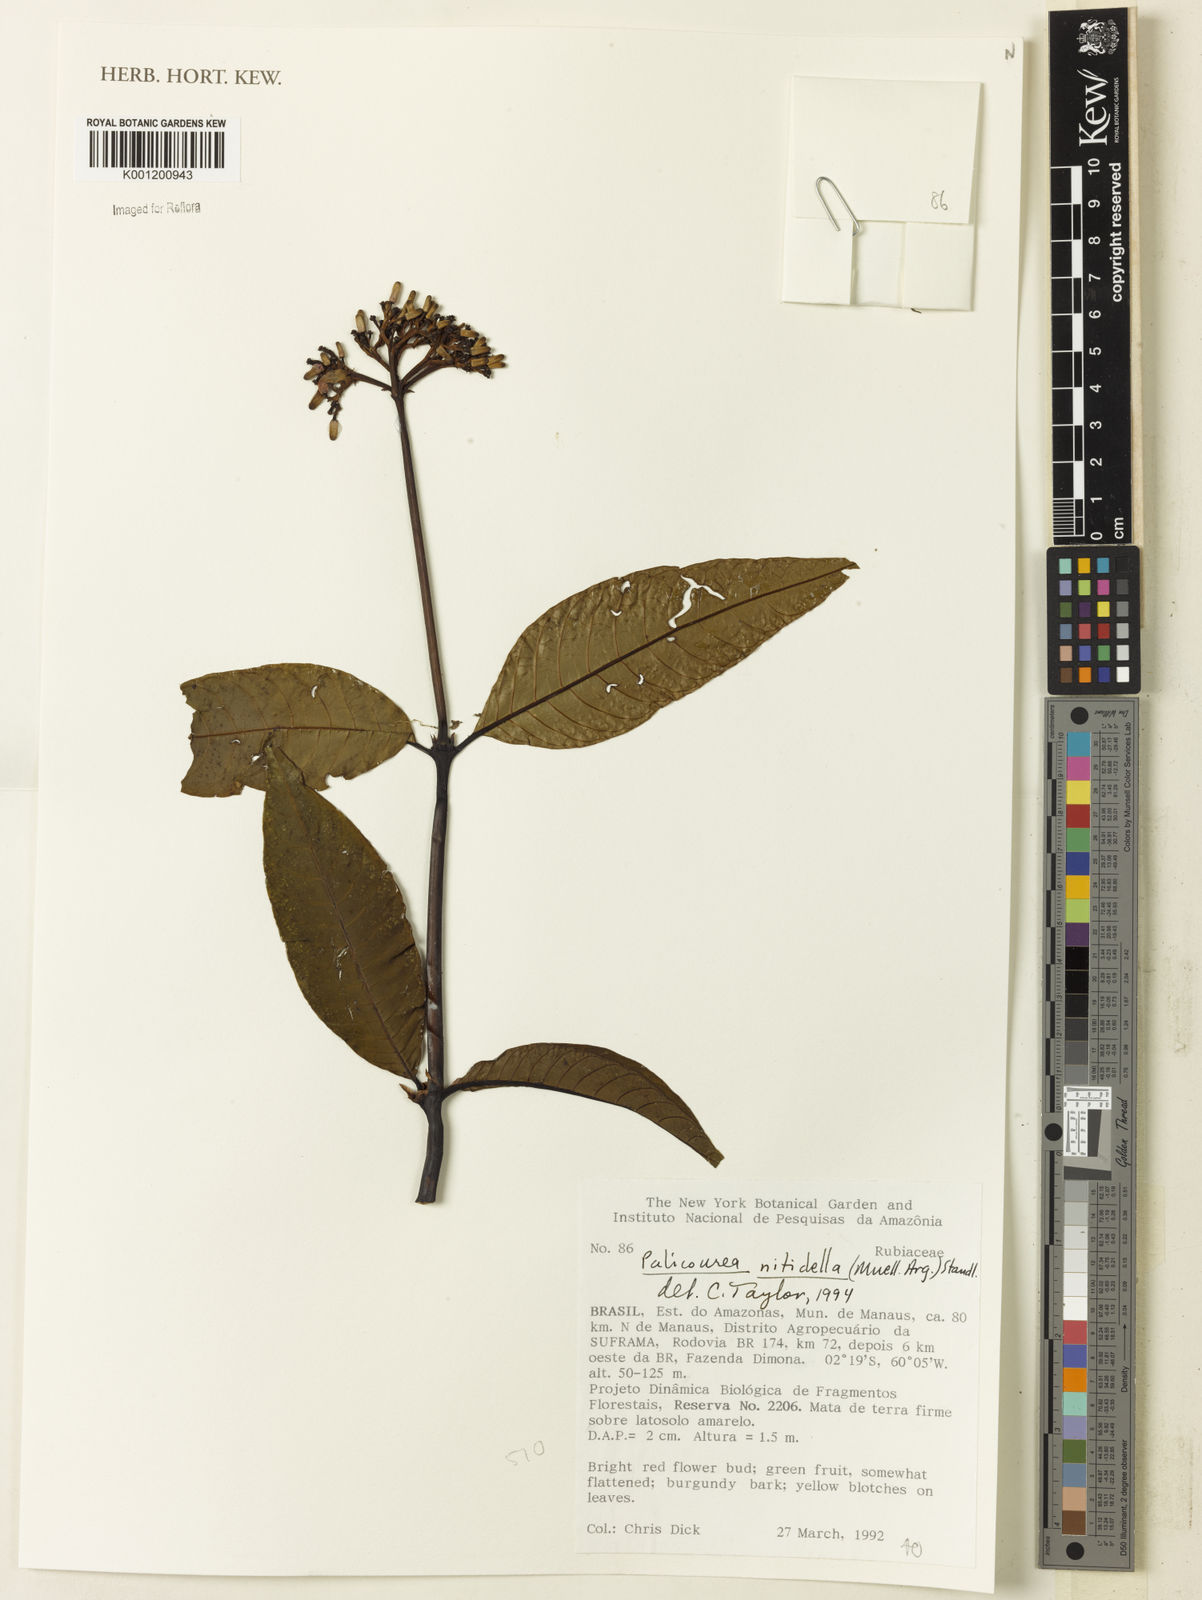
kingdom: Plantae
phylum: Tracheophyta
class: Magnoliopsida
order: Gentianales
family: Rubiaceae
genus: Palicourea
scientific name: Palicourea
